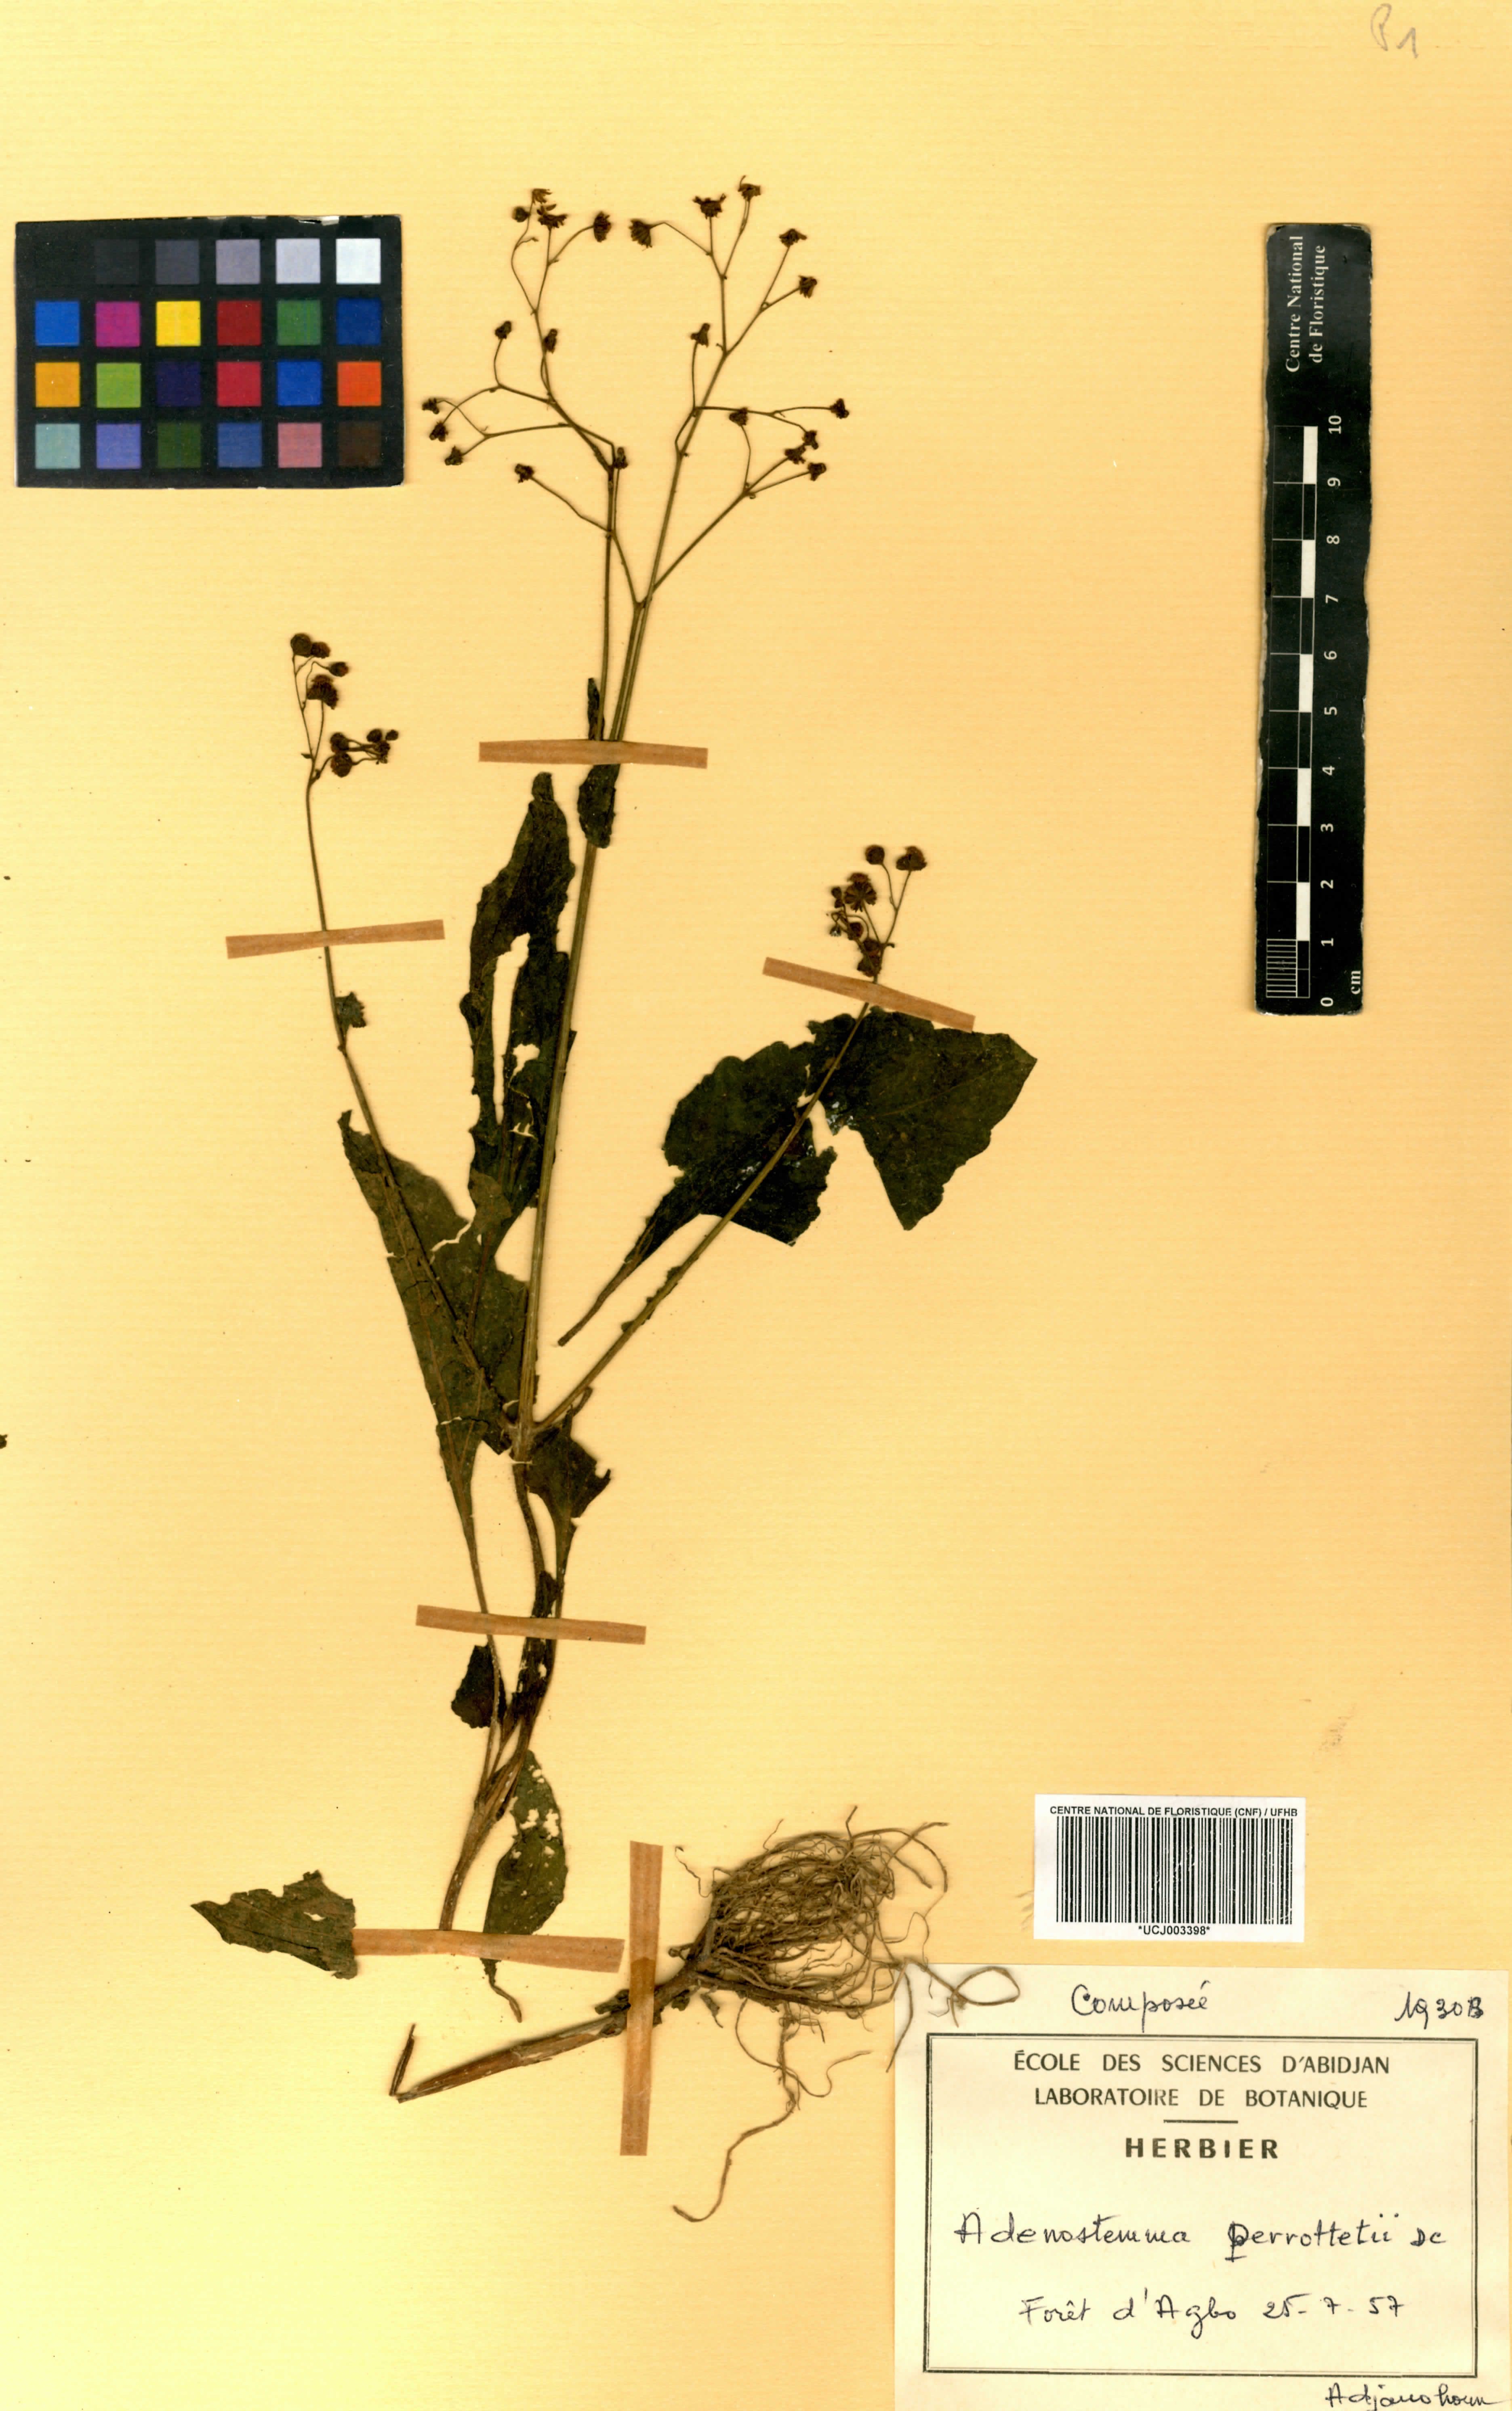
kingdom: Plantae
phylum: Tracheophyta
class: Magnoliopsida
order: Asterales
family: Asteraceae
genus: Adenostemma
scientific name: Adenostemma viscosum
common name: Dungweed
